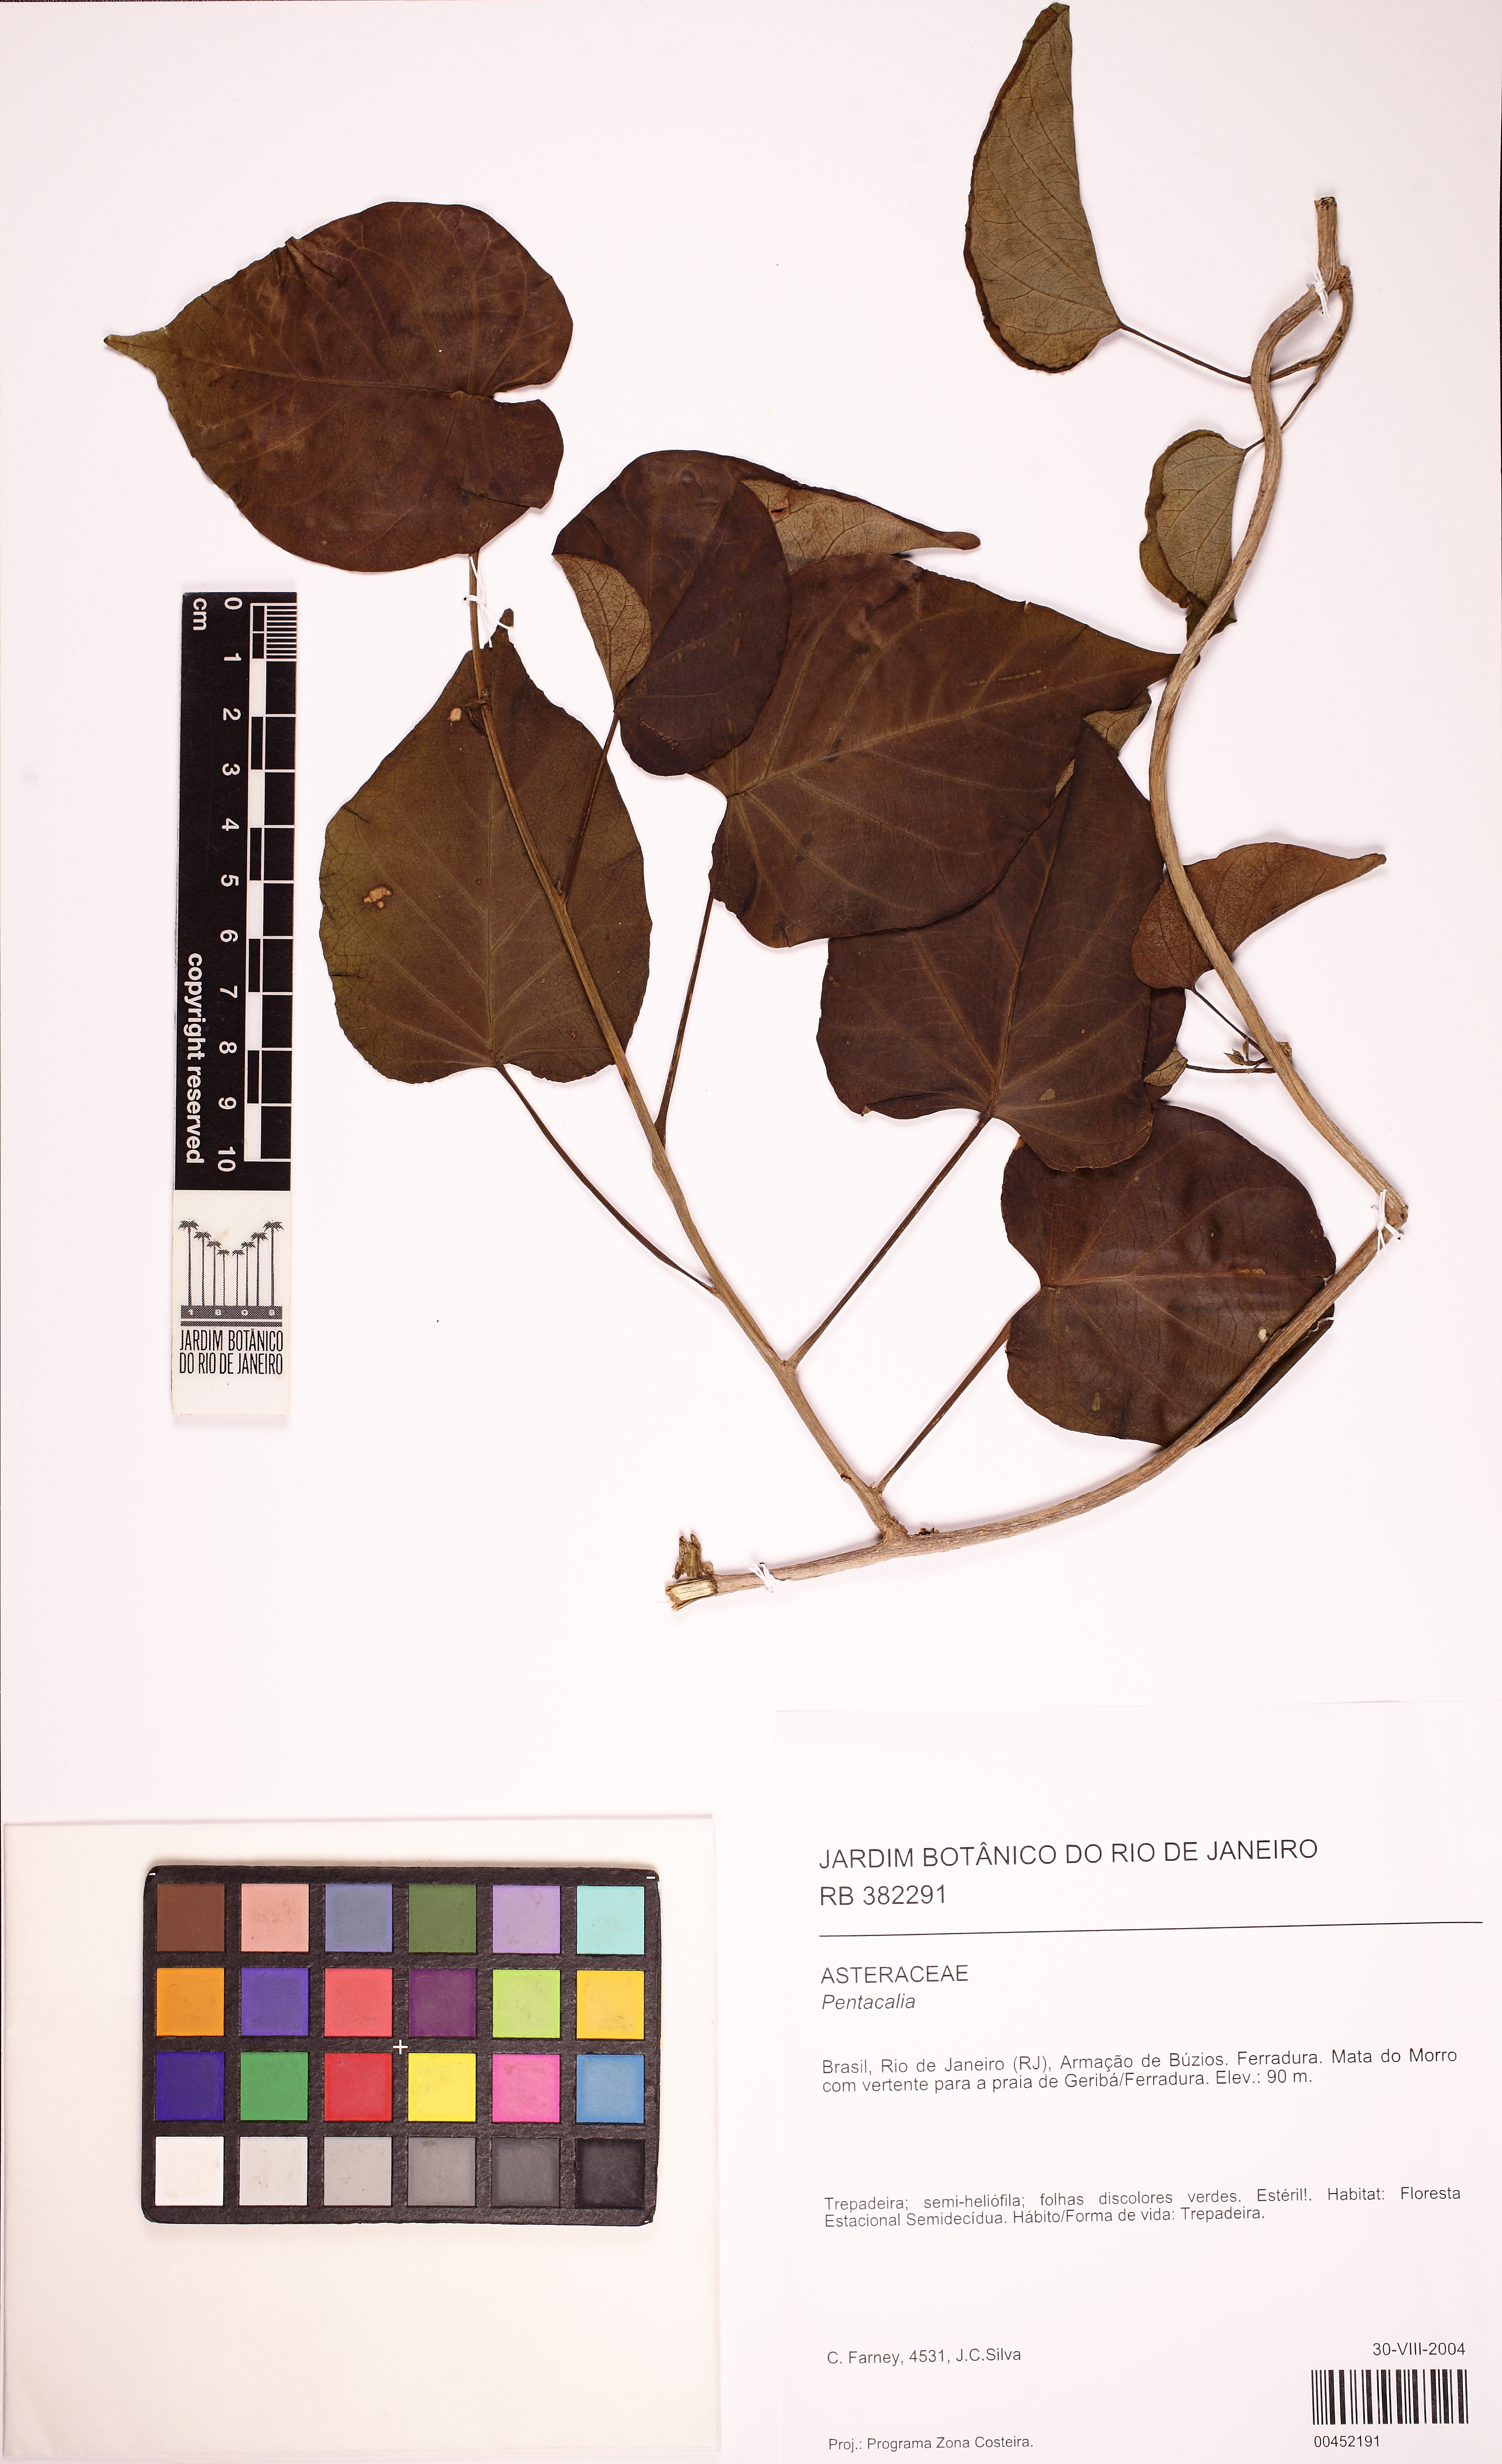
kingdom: Plantae
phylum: Tracheophyta
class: Magnoliopsida
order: Asterales
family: Asteraceae
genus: Pentacalia
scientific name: Pentacalia
